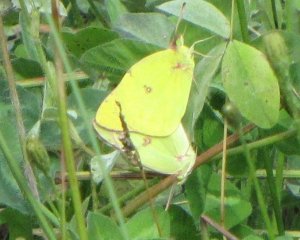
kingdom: Animalia
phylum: Arthropoda
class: Insecta
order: Lepidoptera
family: Pieridae
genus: Colias
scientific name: Colias philodice
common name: Clouded Sulphur
